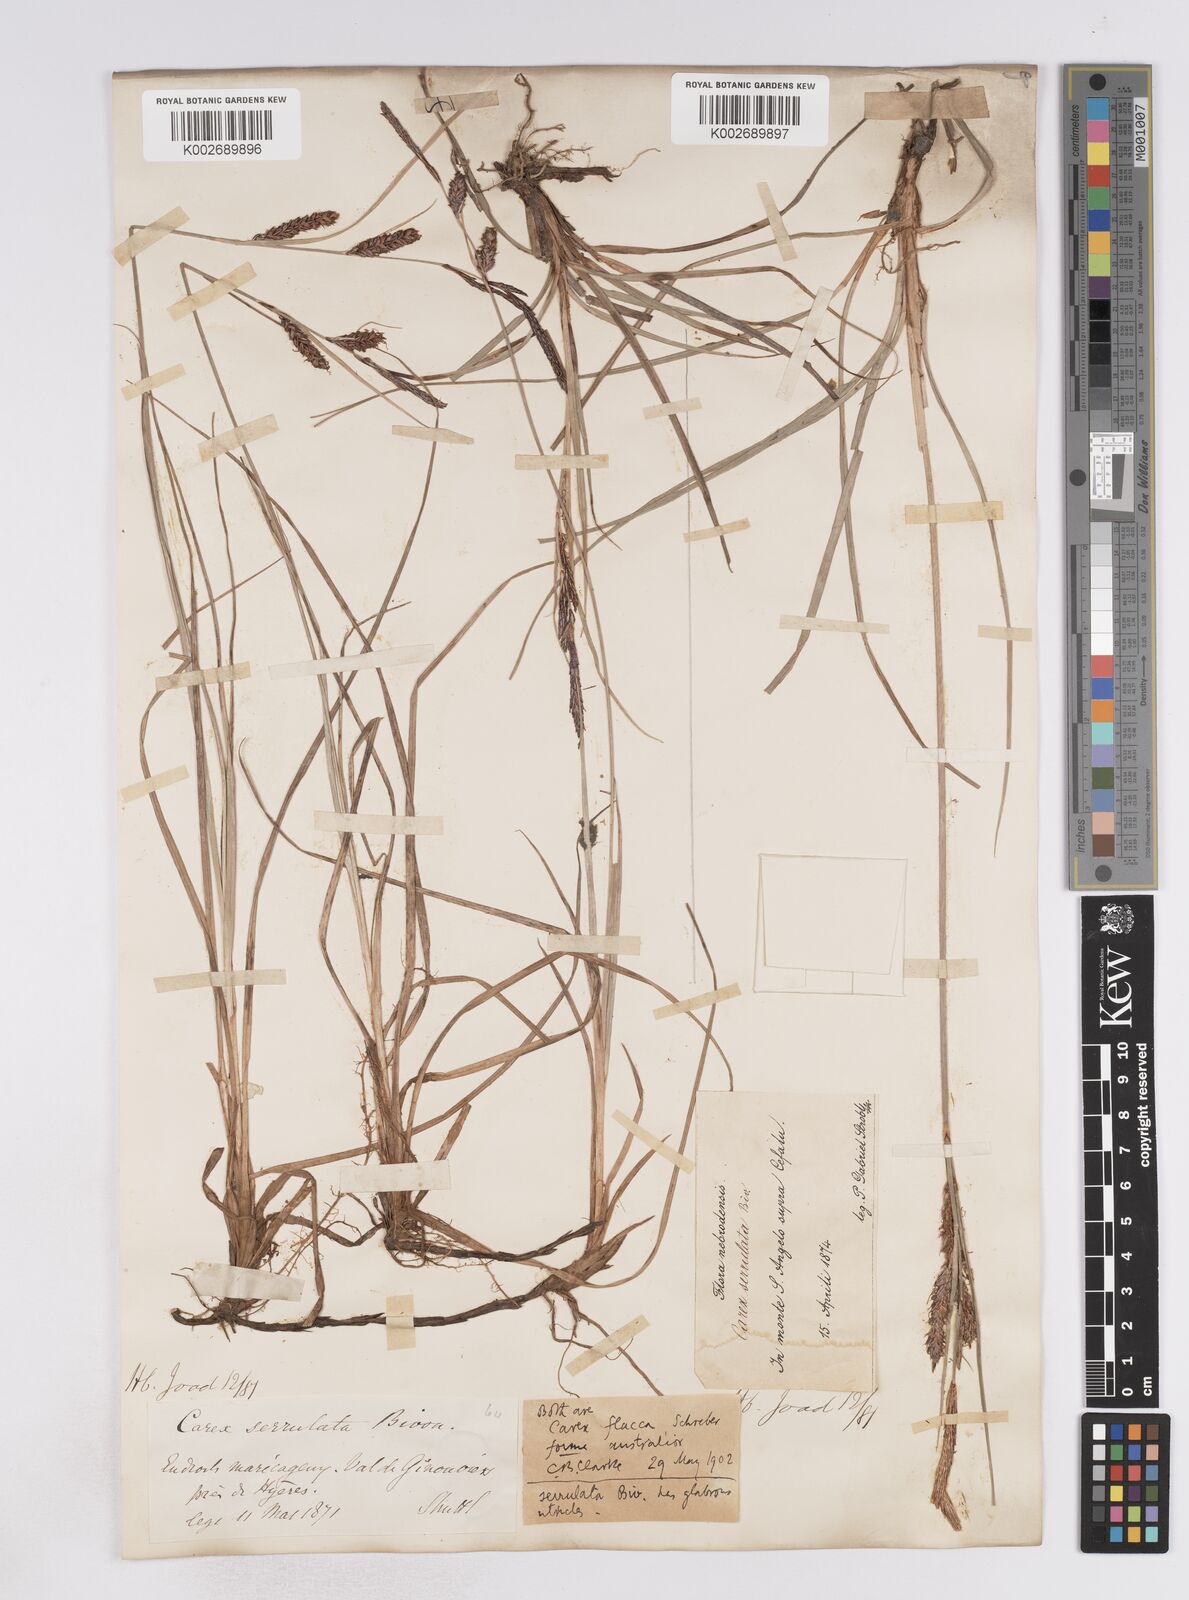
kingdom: Plantae
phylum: Tracheophyta
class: Liliopsida
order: Poales
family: Cyperaceae
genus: Carex
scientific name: Carex flacca
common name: Glaucous sedge
